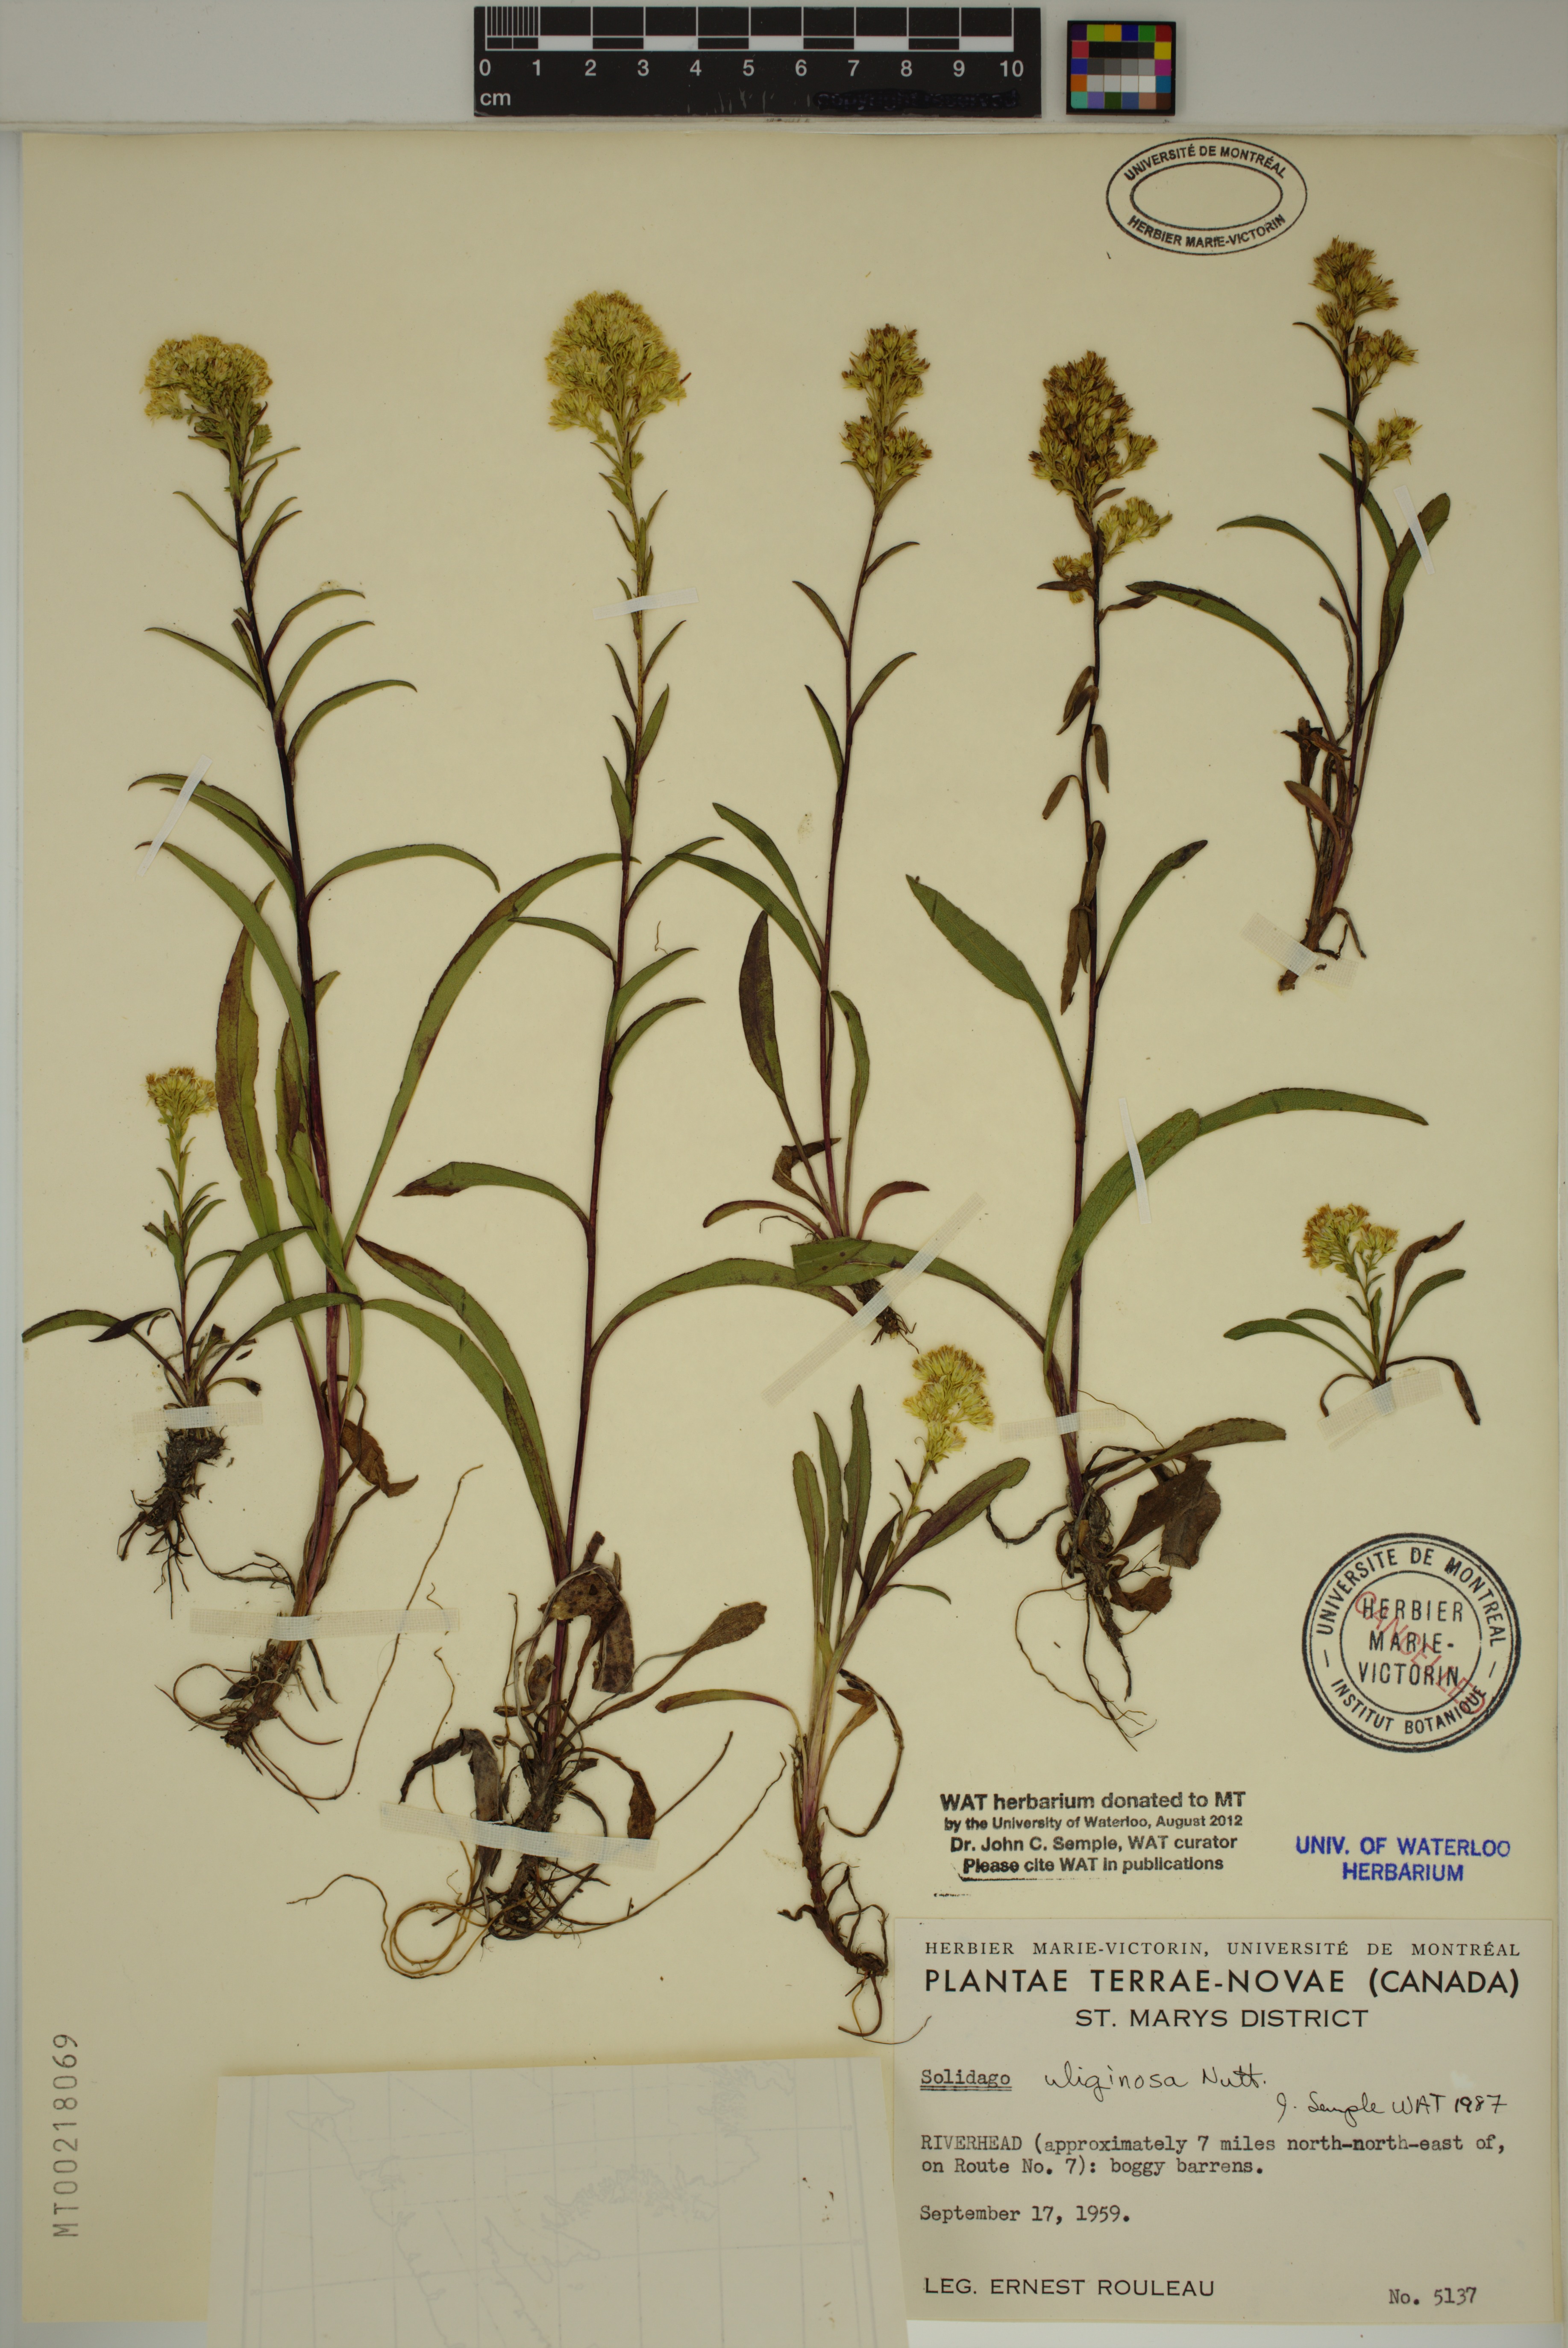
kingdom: Plantae
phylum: Tracheophyta
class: Magnoliopsida
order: Asterales
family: Asteraceae
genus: Solidago
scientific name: Solidago uliginosa
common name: Bog goldenrod
